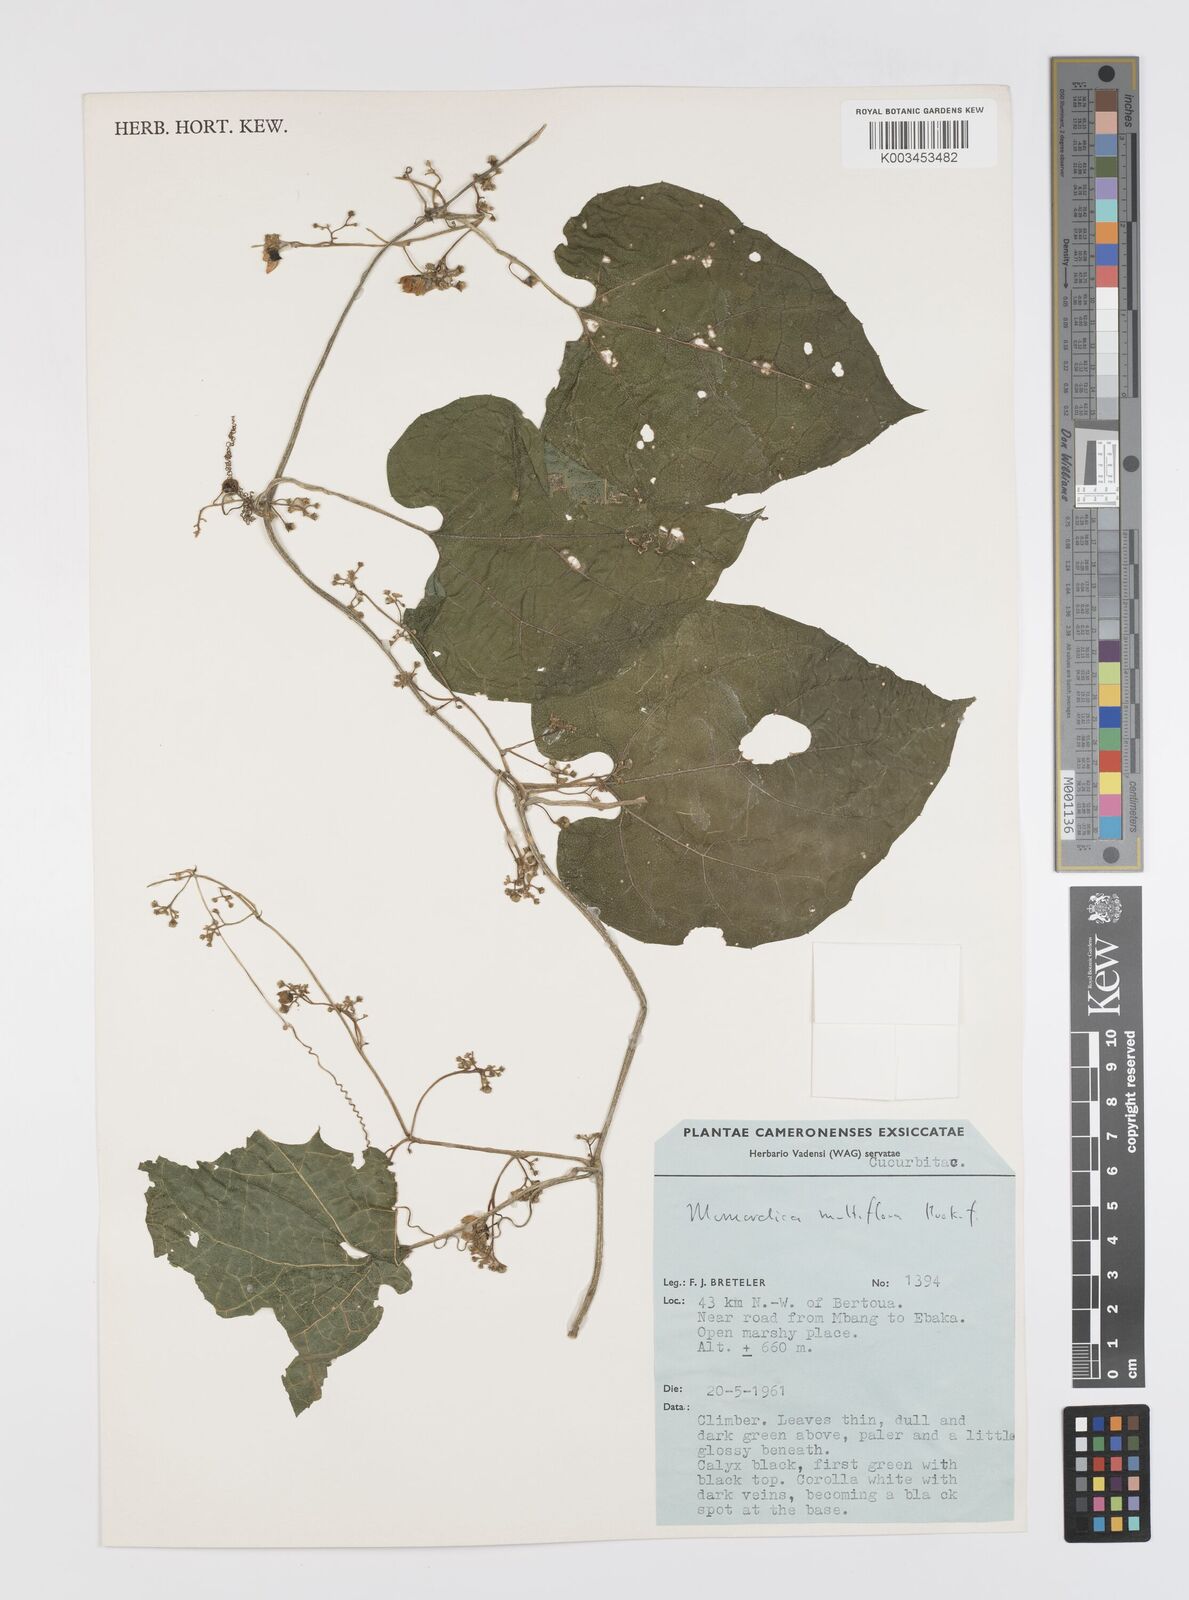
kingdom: Plantae
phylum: Tracheophyta
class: Magnoliopsida
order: Cucurbitales
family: Cucurbitaceae
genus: Momordica
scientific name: Momordica multiflora
